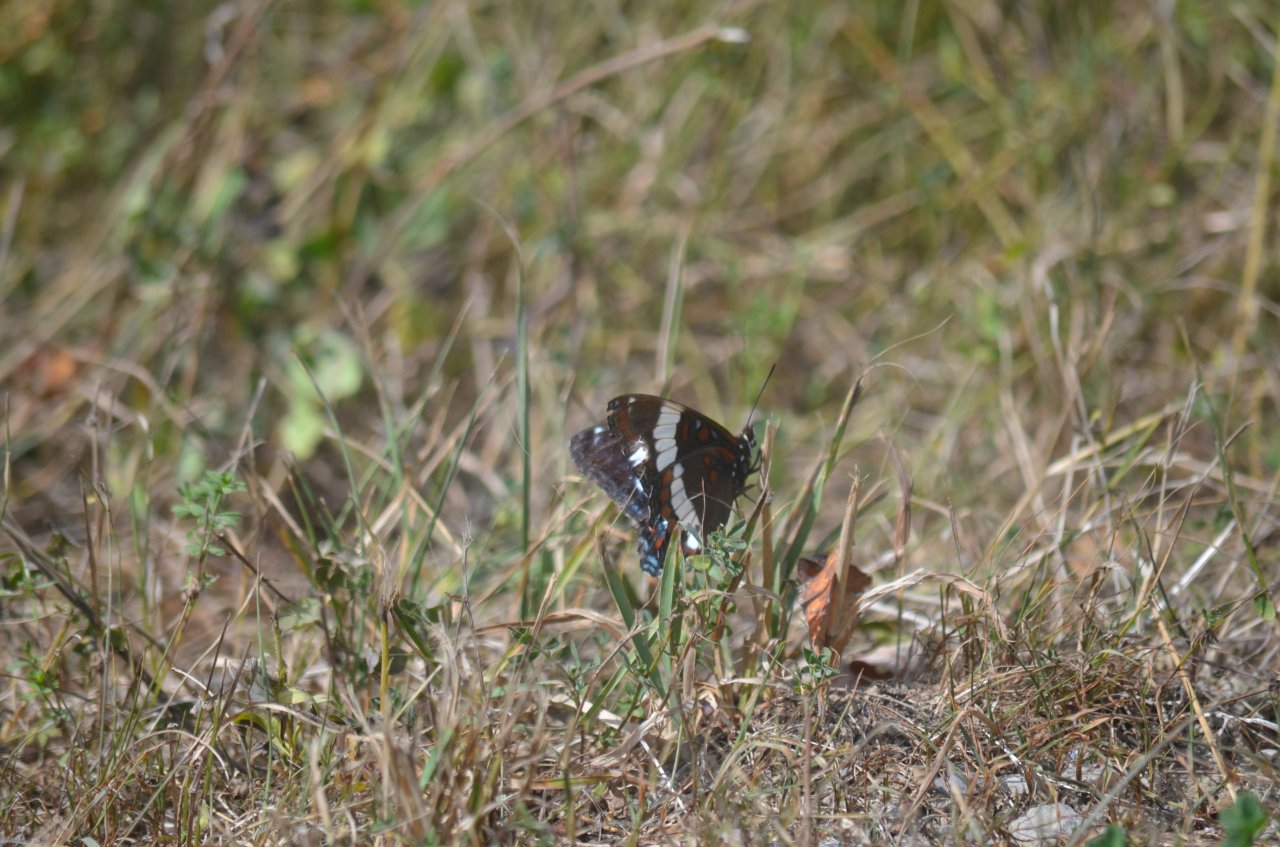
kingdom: Animalia
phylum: Arthropoda
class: Insecta
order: Lepidoptera
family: Nymphalidae
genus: Limenitis
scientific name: Limenitis arthemis
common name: Red-spotted Admiral
